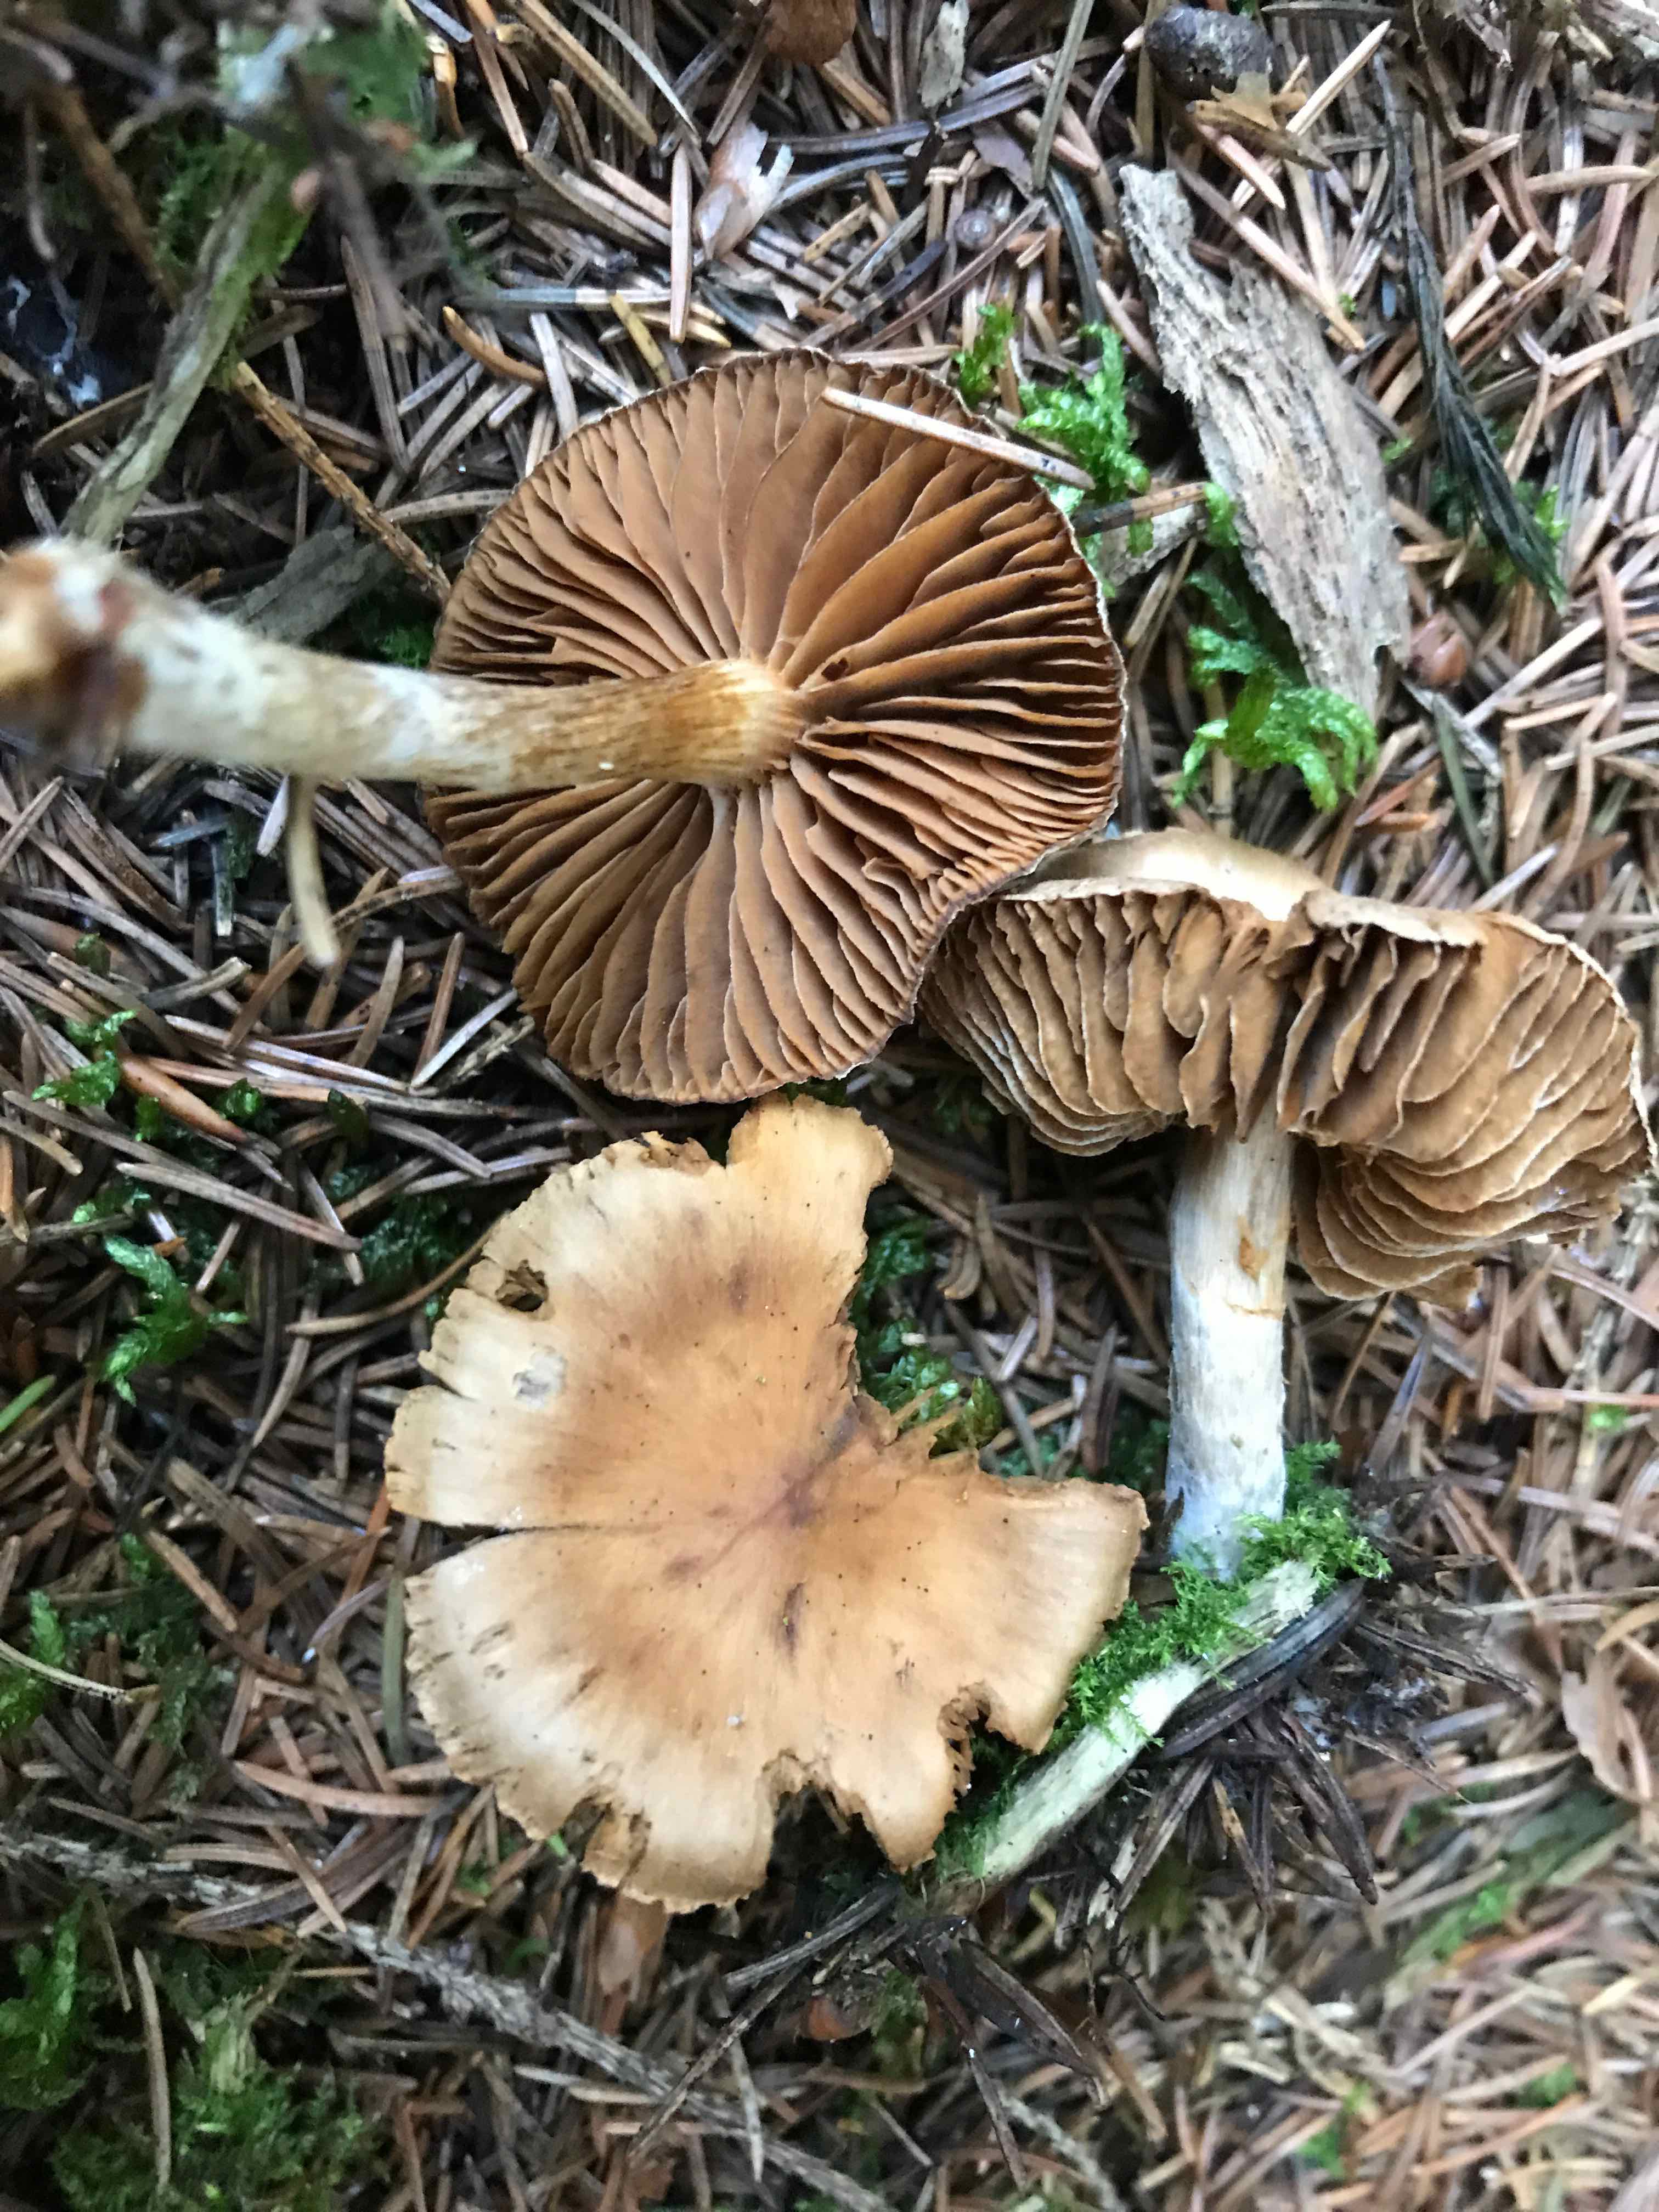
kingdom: Fungi
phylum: Basidiomycota
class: Agaricomycetes
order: Agaricales
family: Cortinariaceae
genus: Cortinarius
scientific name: Cortinarius
